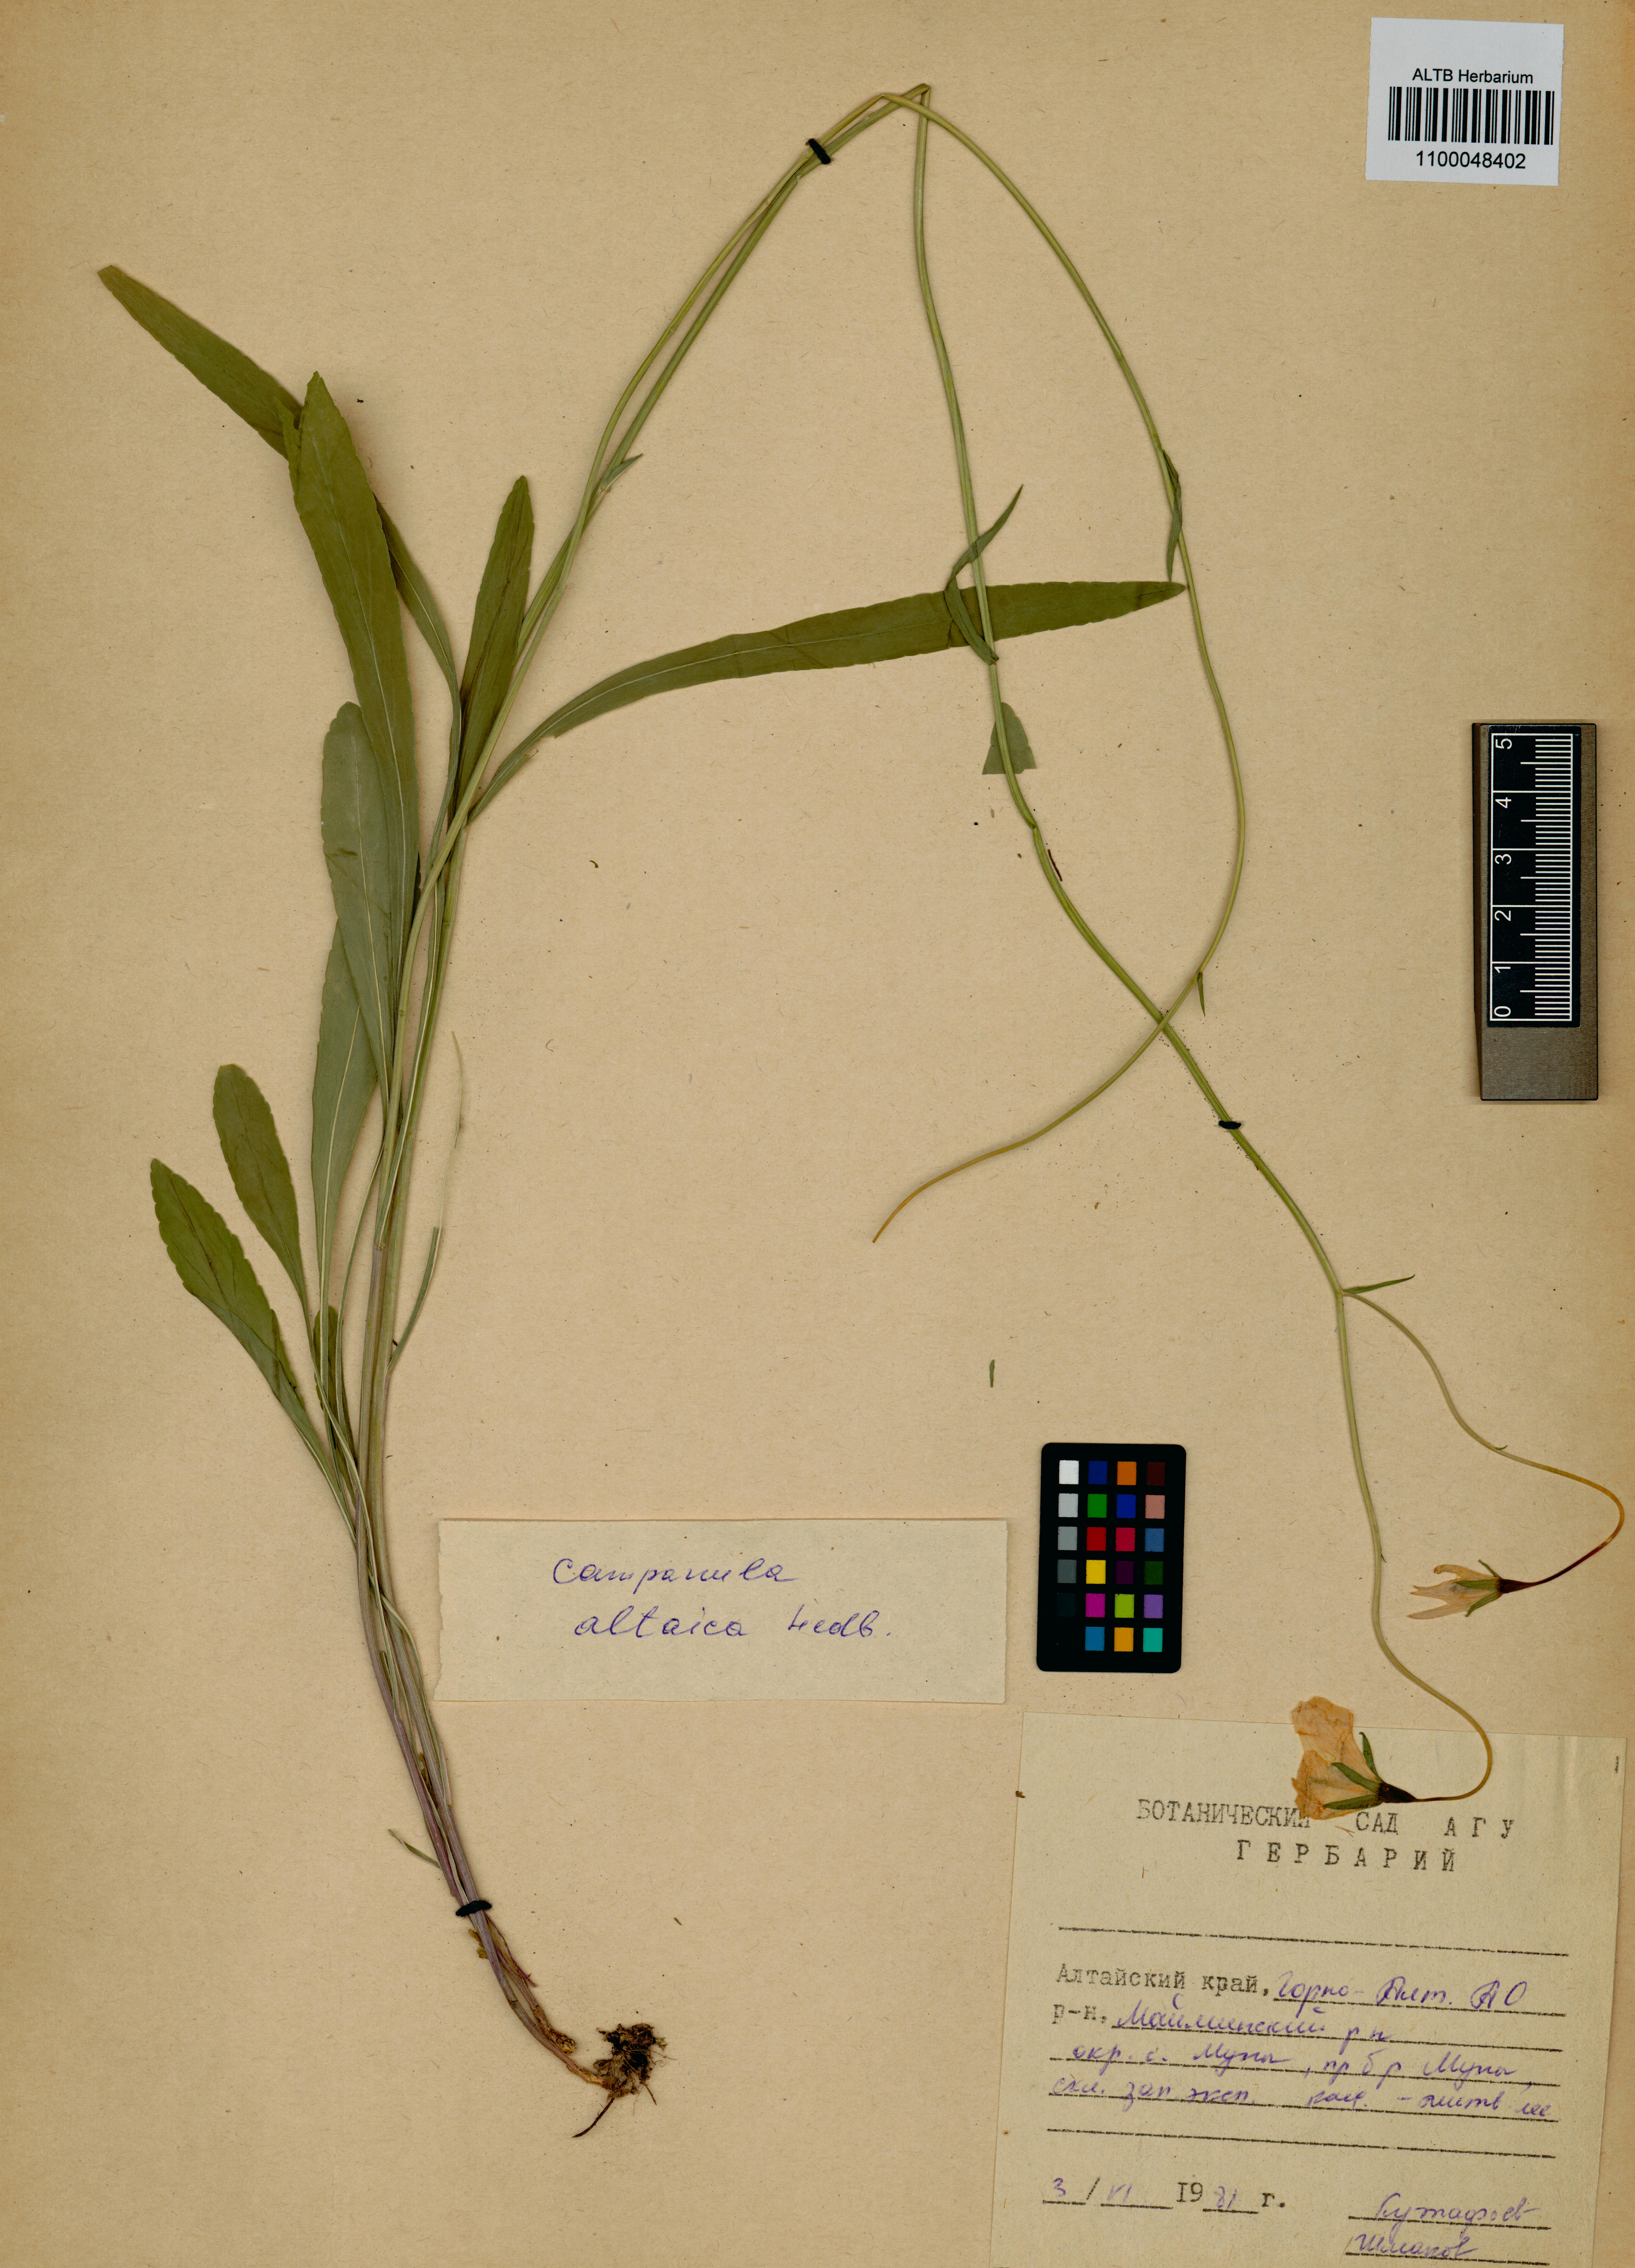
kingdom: Plantae
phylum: Tracheophyta
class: Magnoliopsida
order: Asterales
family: Campanulaceae
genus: Campanula
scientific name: Campanula stevenii
